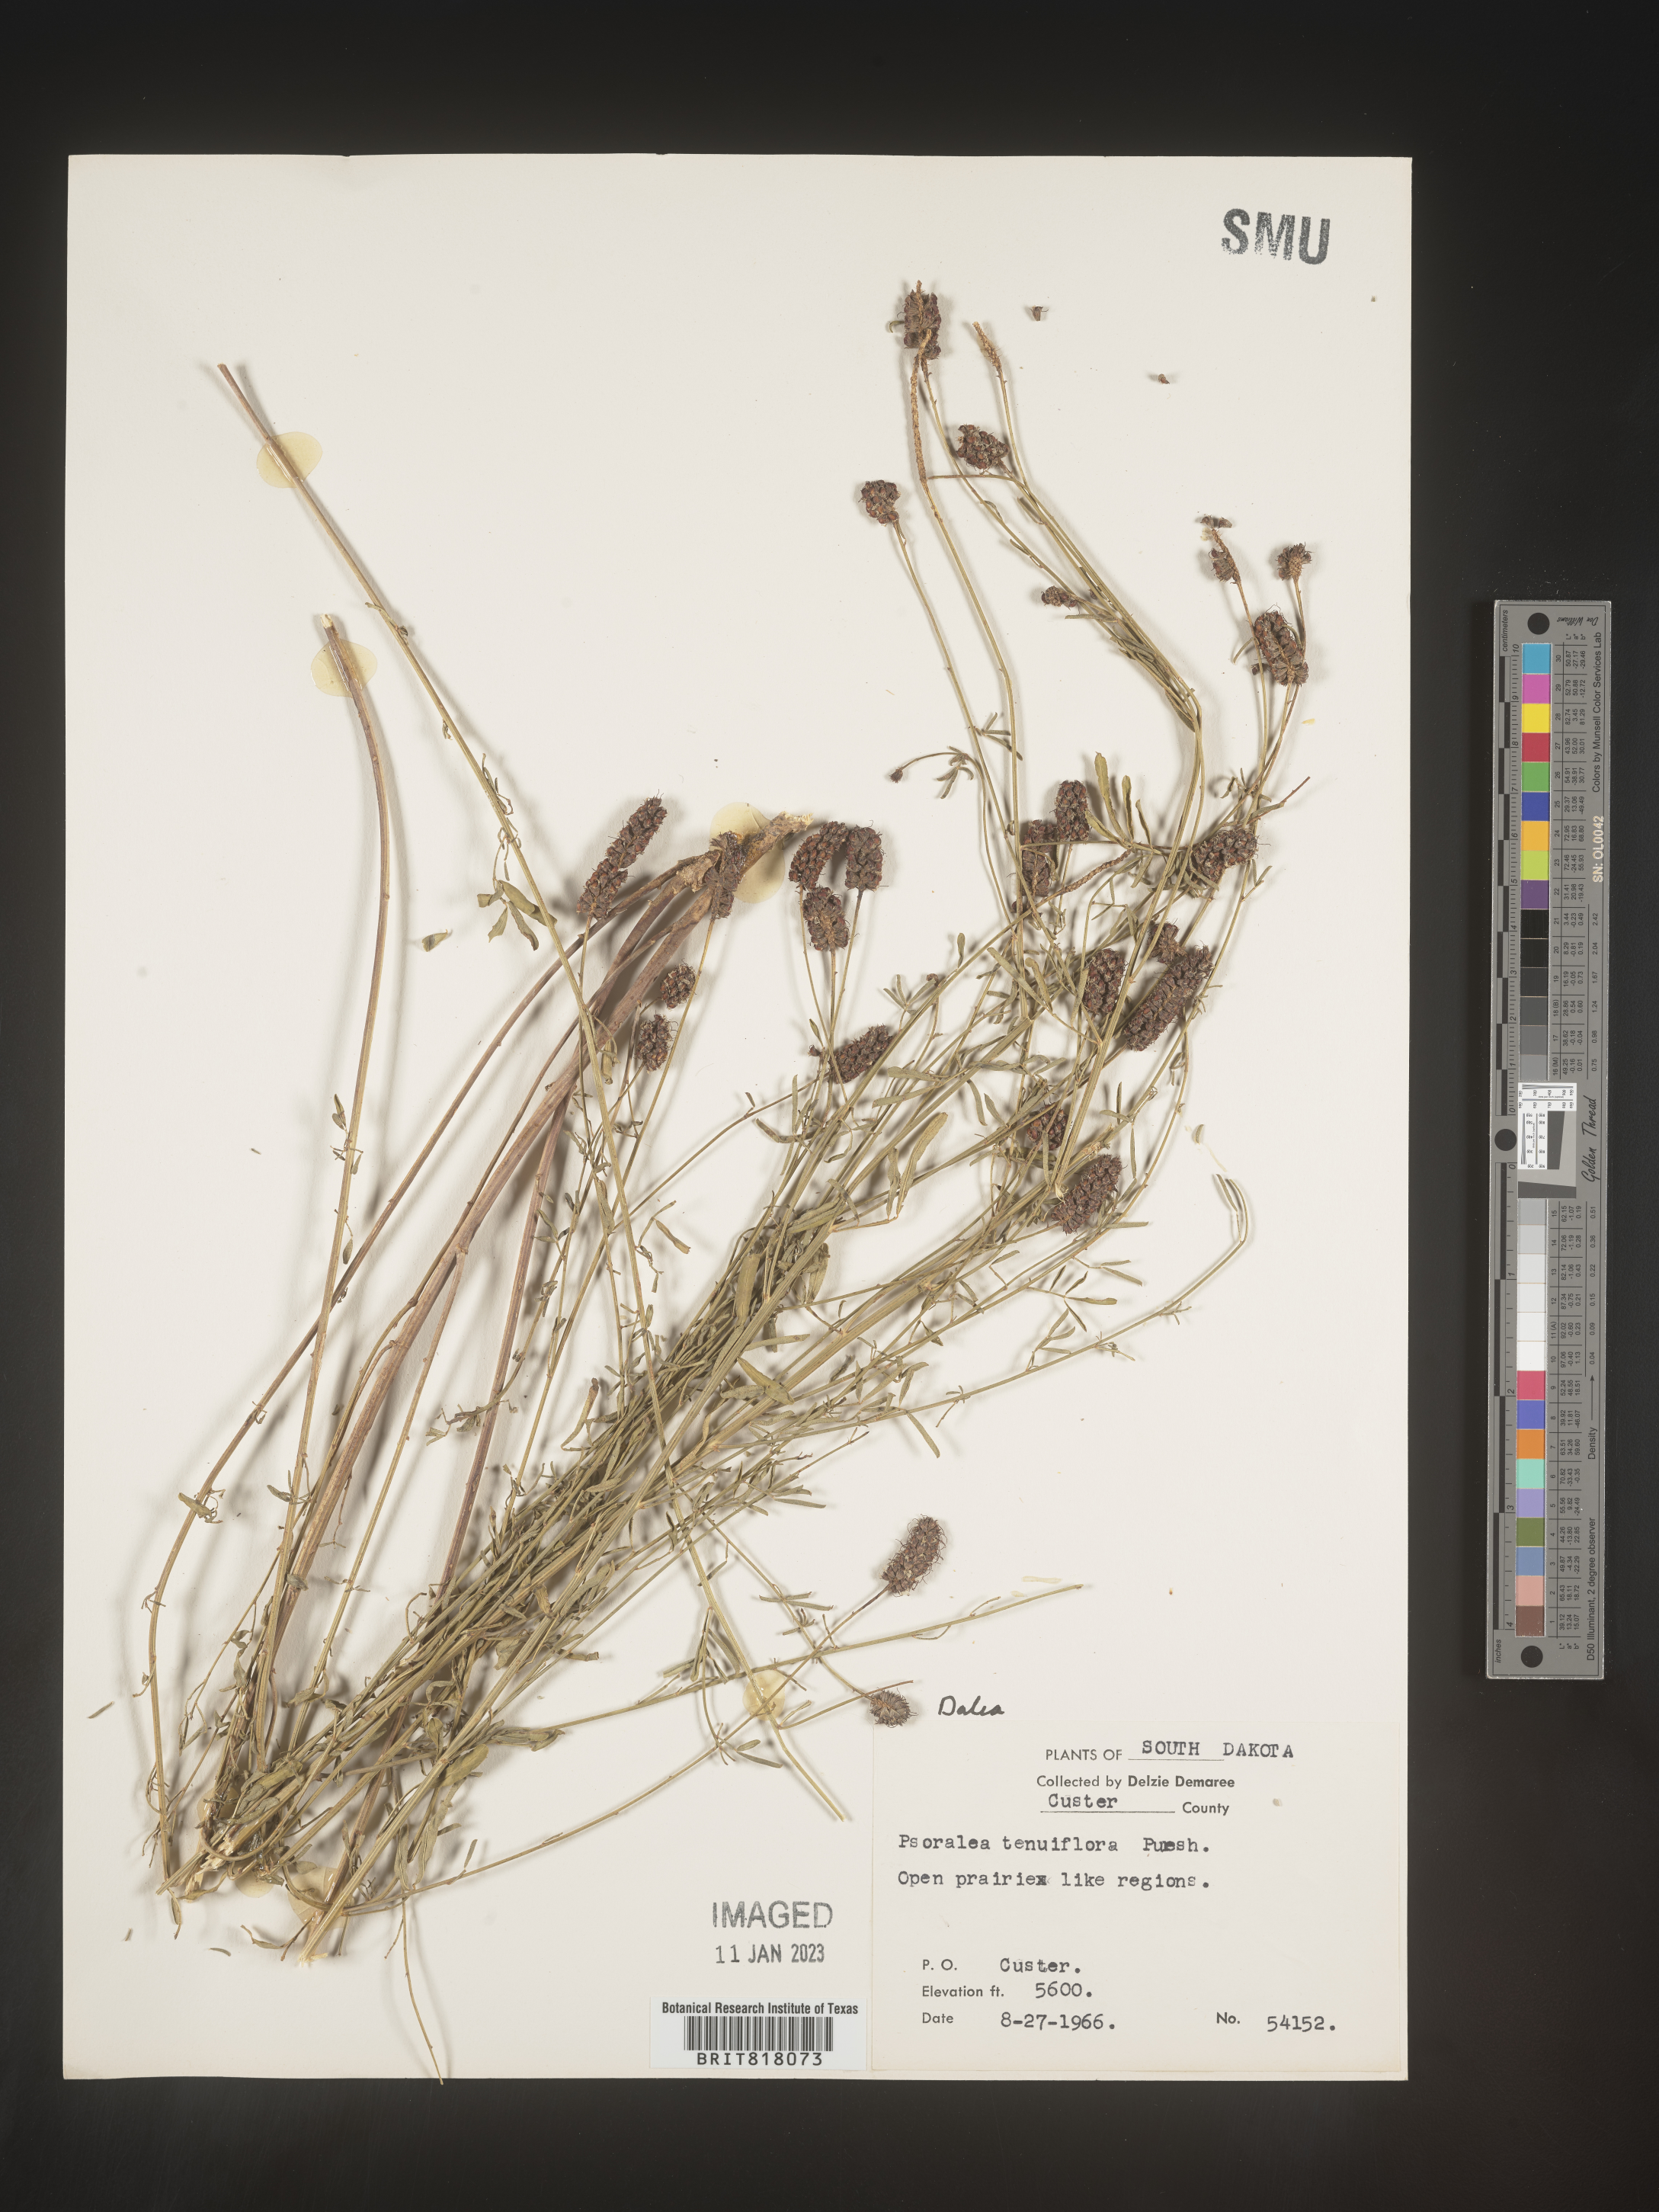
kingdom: Plantae
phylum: Tracheophyta
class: Magnoliopsida
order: Fabales
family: Fabaceae
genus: Dalea
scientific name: Dalea
